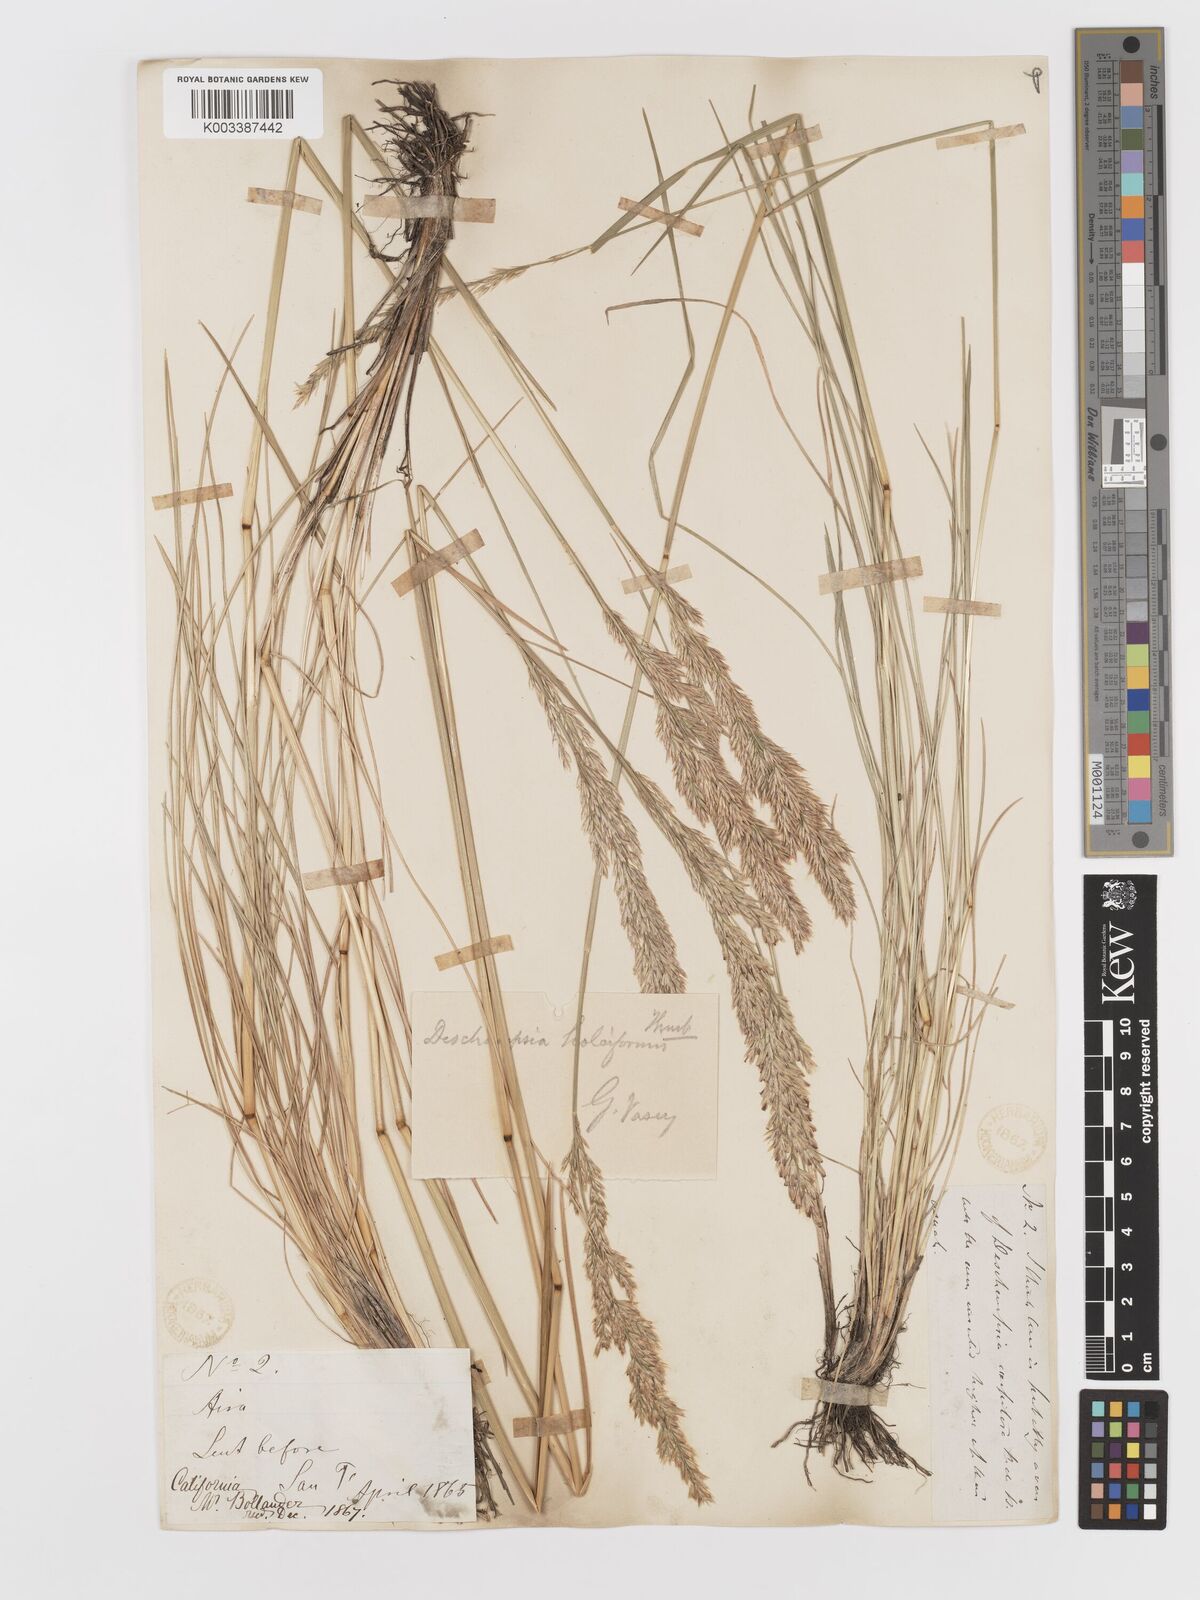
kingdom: Plantae
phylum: Tracheophyta
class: Liliopsida
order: Poales
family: Poaceae
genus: Deschampsia
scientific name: Deschampsia cespitosa
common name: Tufted hair-grass
